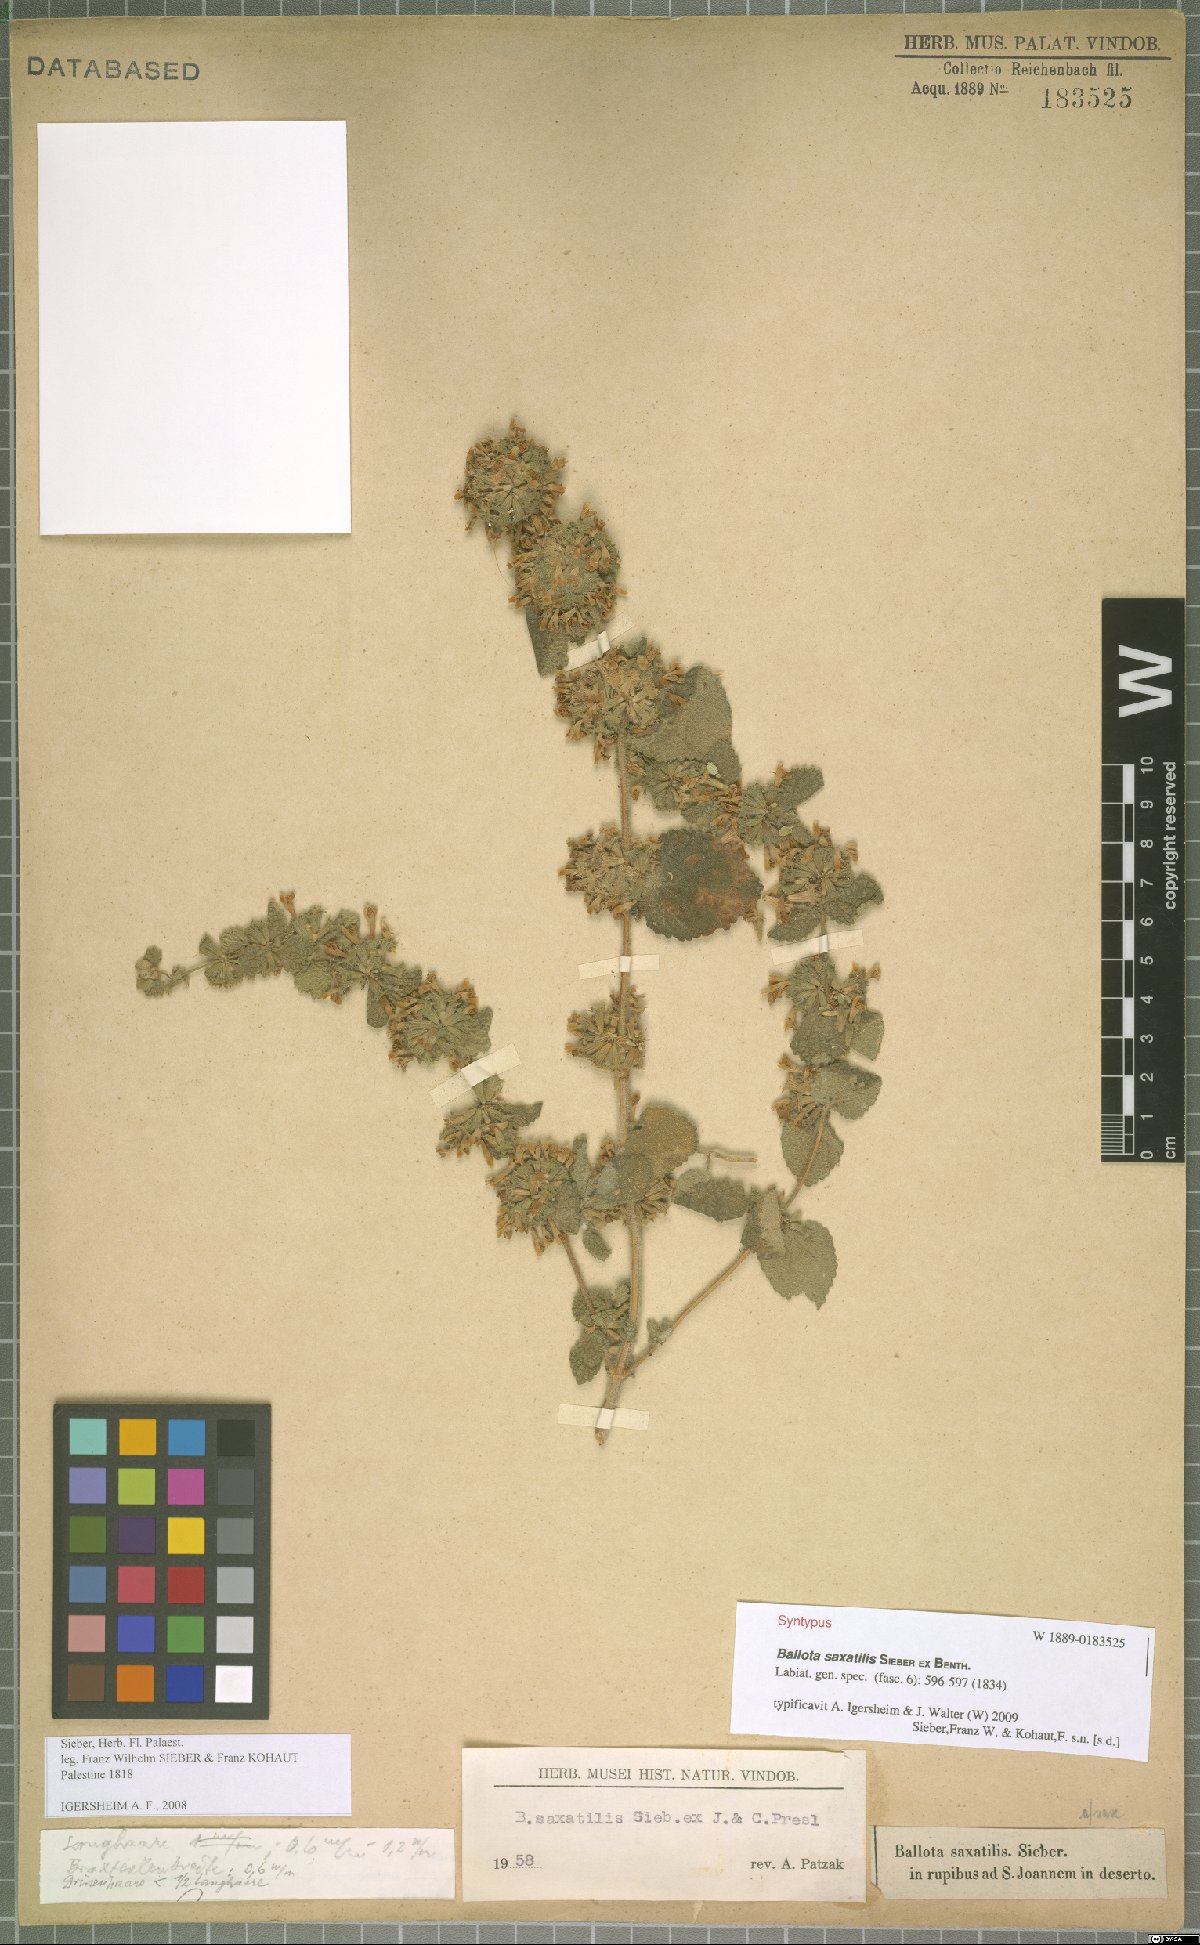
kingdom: Plantae
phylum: Tracheophyta
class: Magnoliopsida
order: Lamiales
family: Lamiaceae
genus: Ballota
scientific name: Ballota saxatilis
